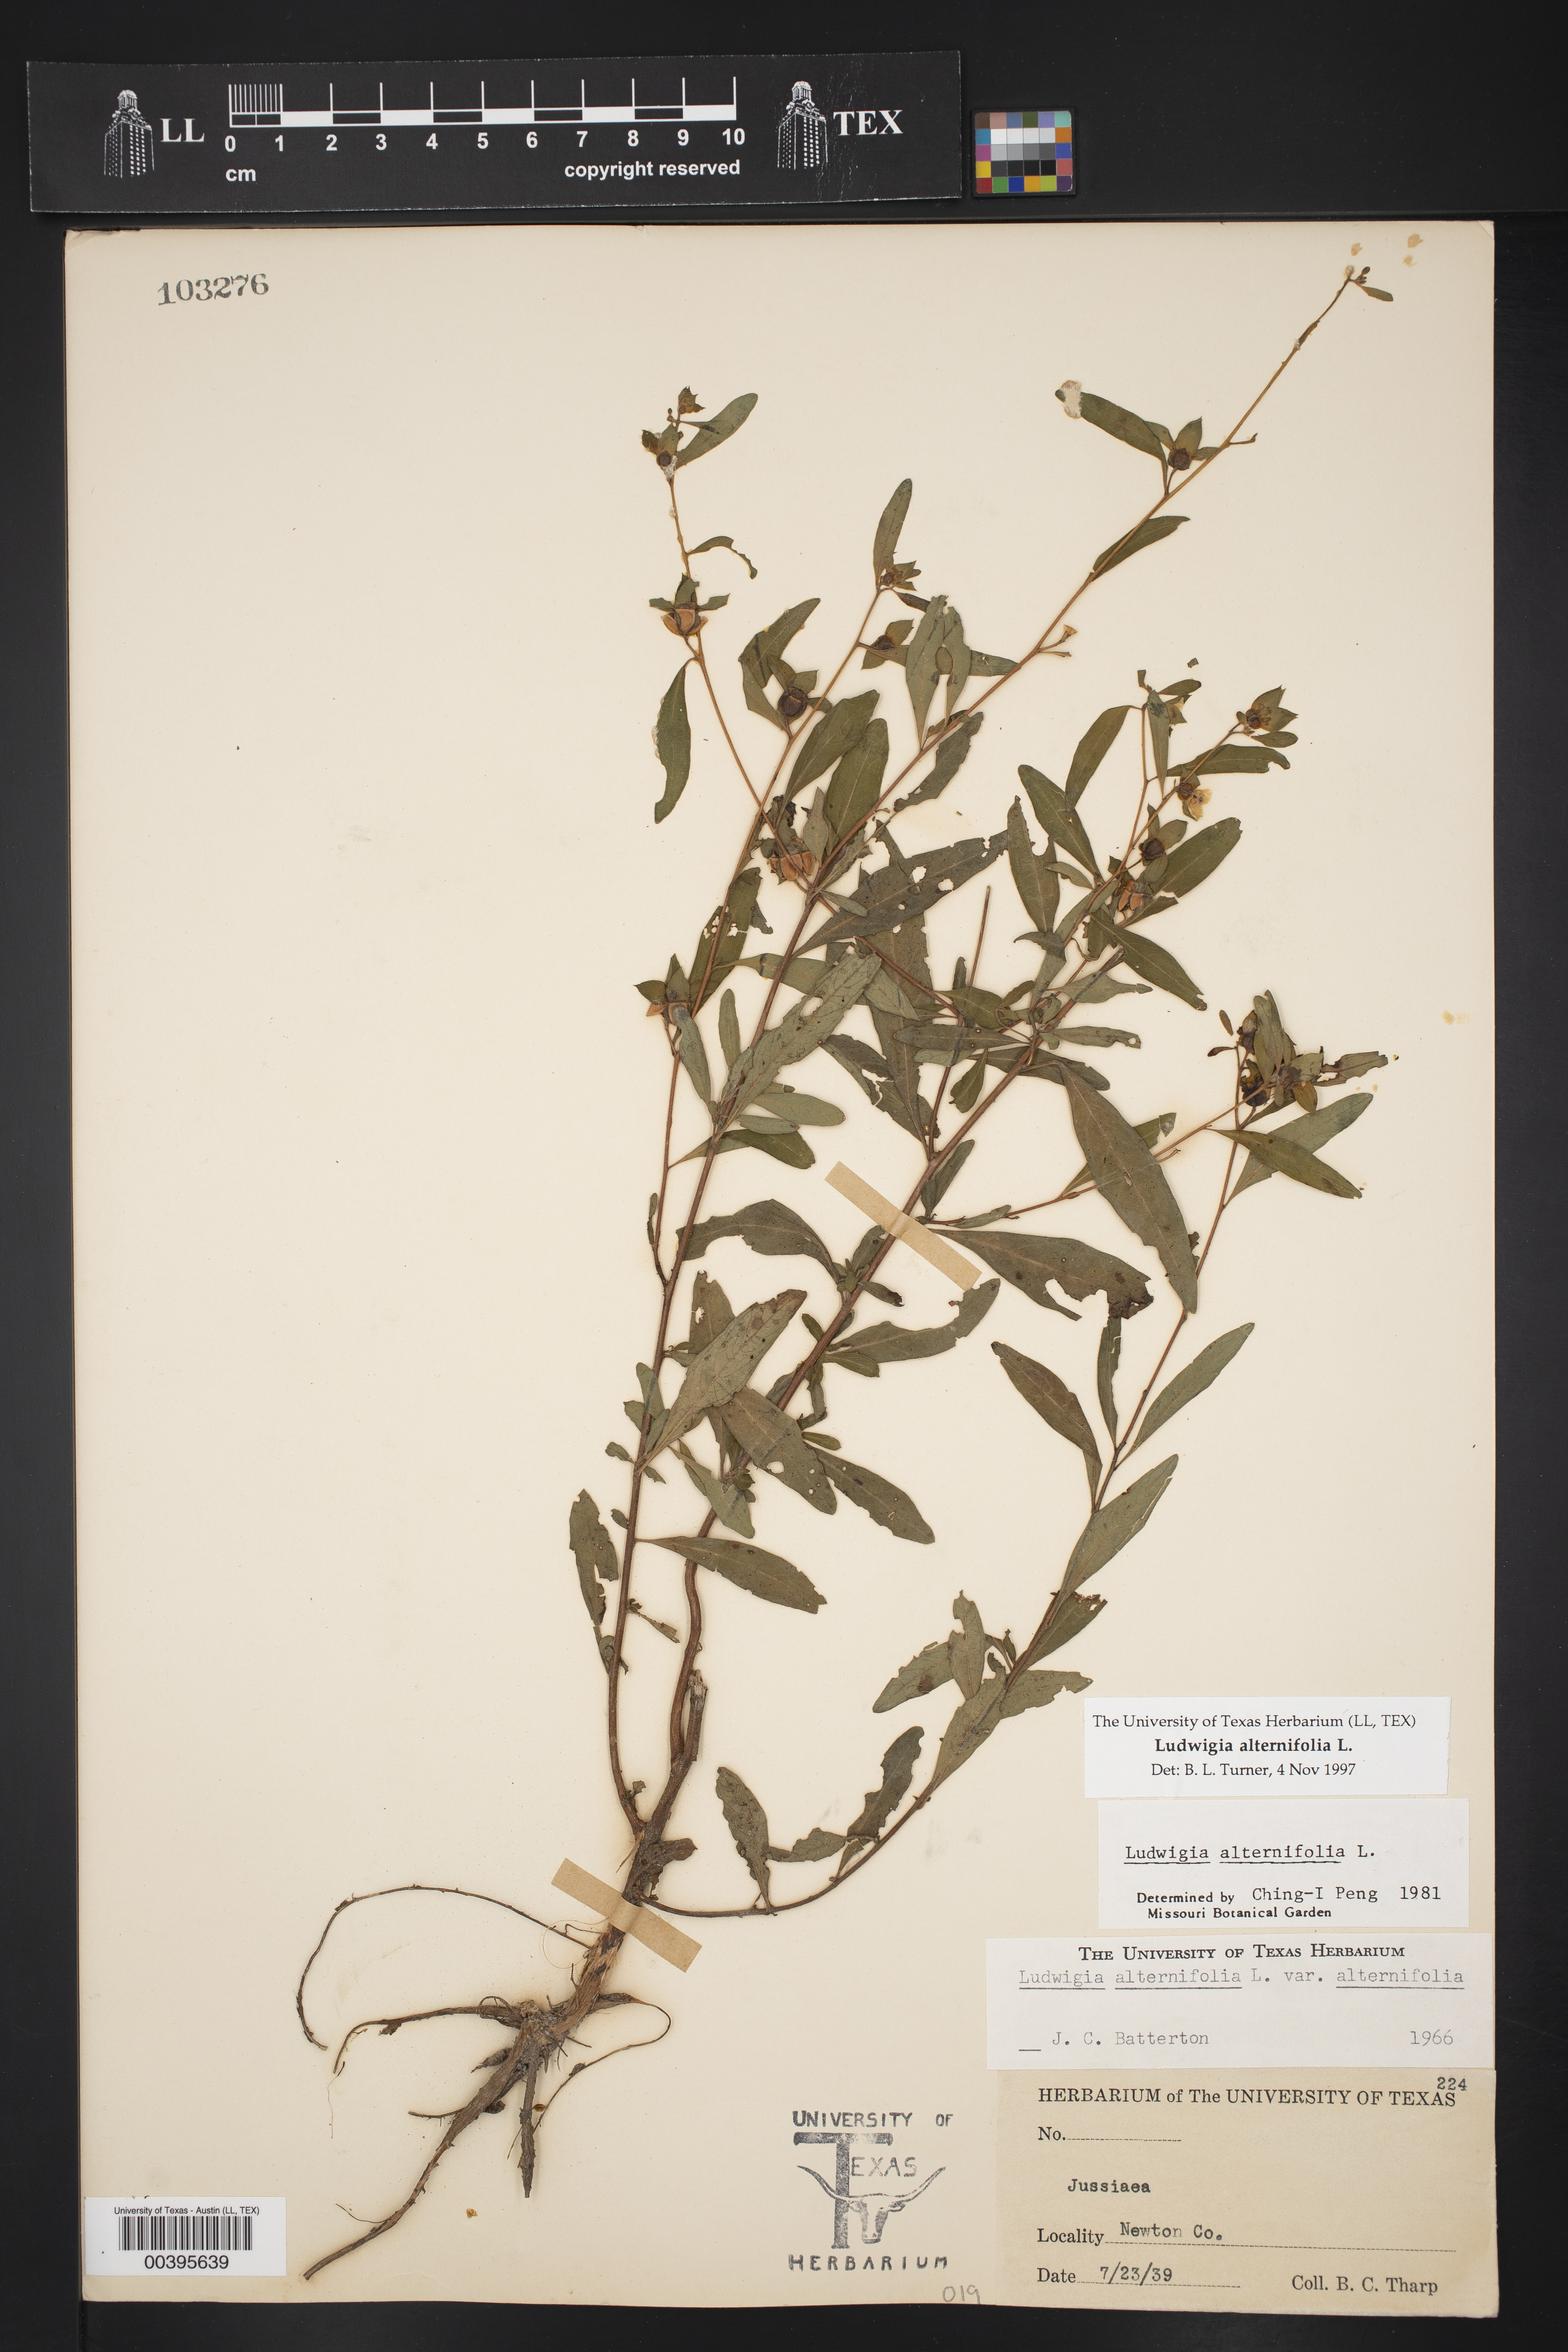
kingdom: Plantae
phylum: Tracheophyta
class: Magnoliopsida
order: Myrtales
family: Onagraceae
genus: Ludwigia
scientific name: Ludwigia alternifolia
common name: Rattlebox
